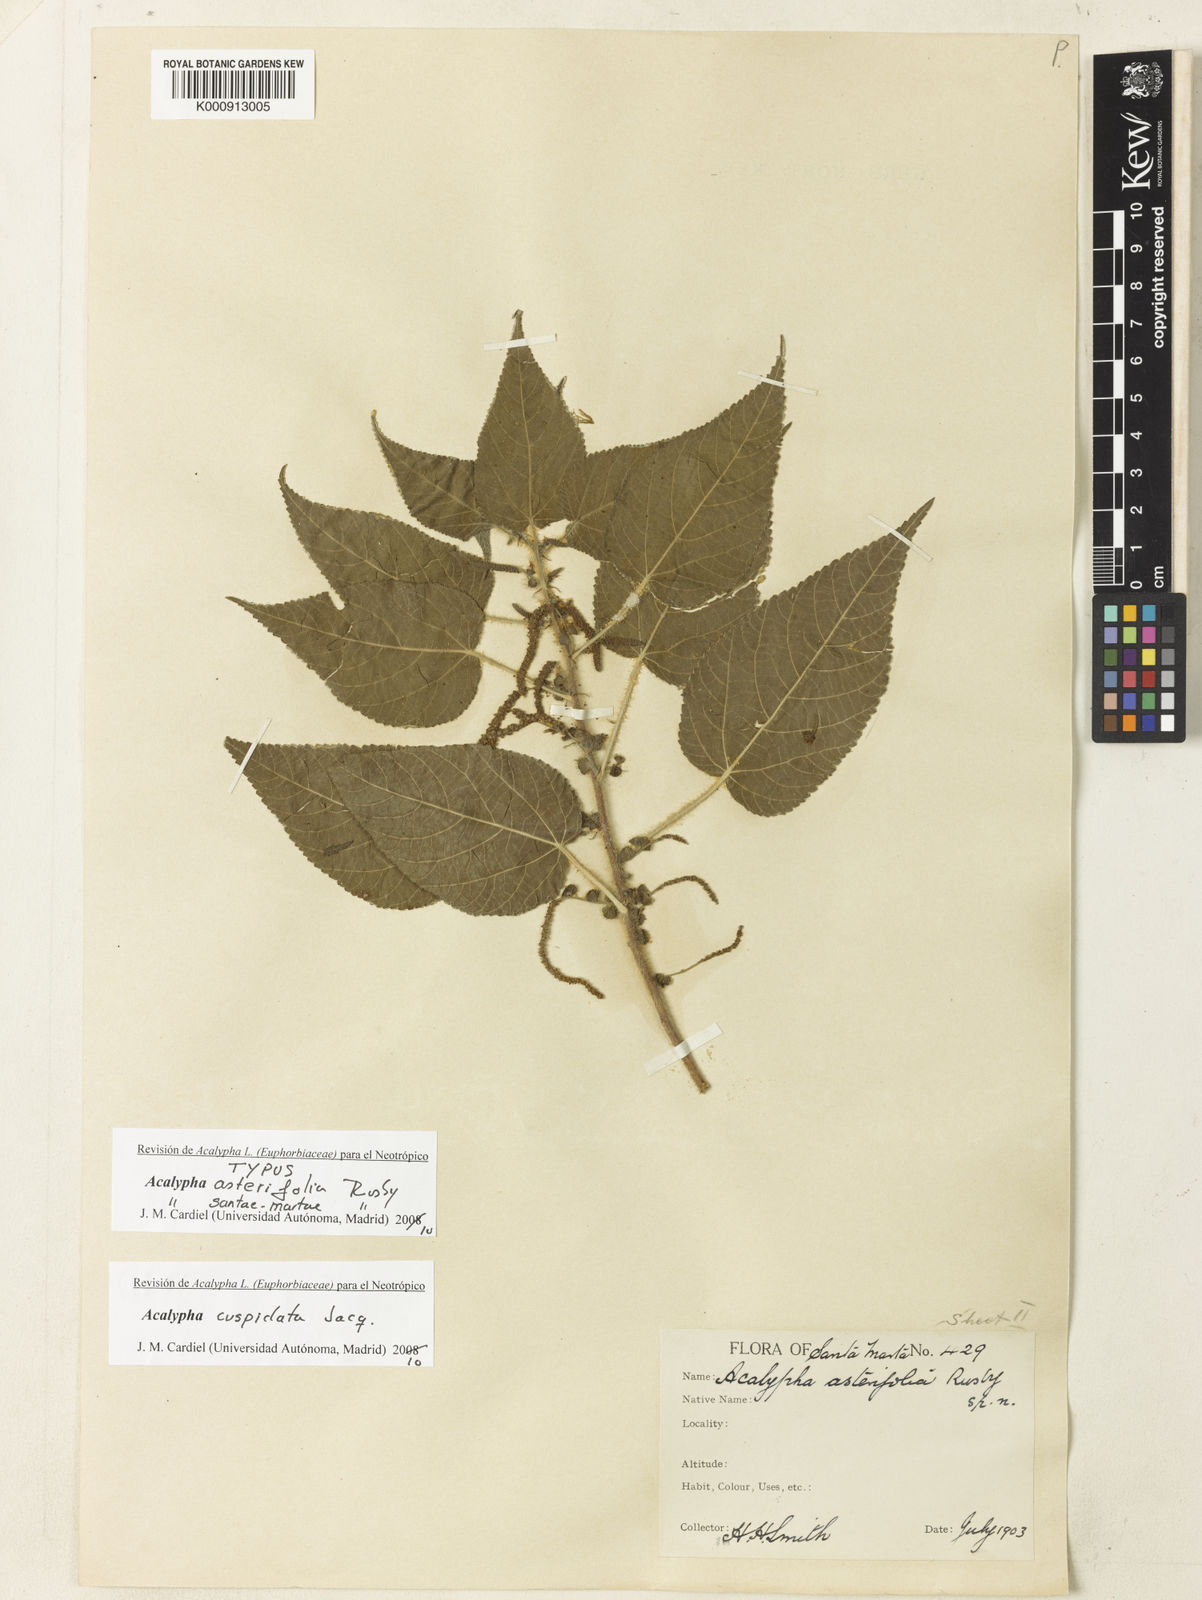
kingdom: Plantae
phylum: Tracheophyta
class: Magnoliopsida
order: Malpighiales
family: Euphorbiaceae
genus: Acalypha
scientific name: Acalypha cuspidata
